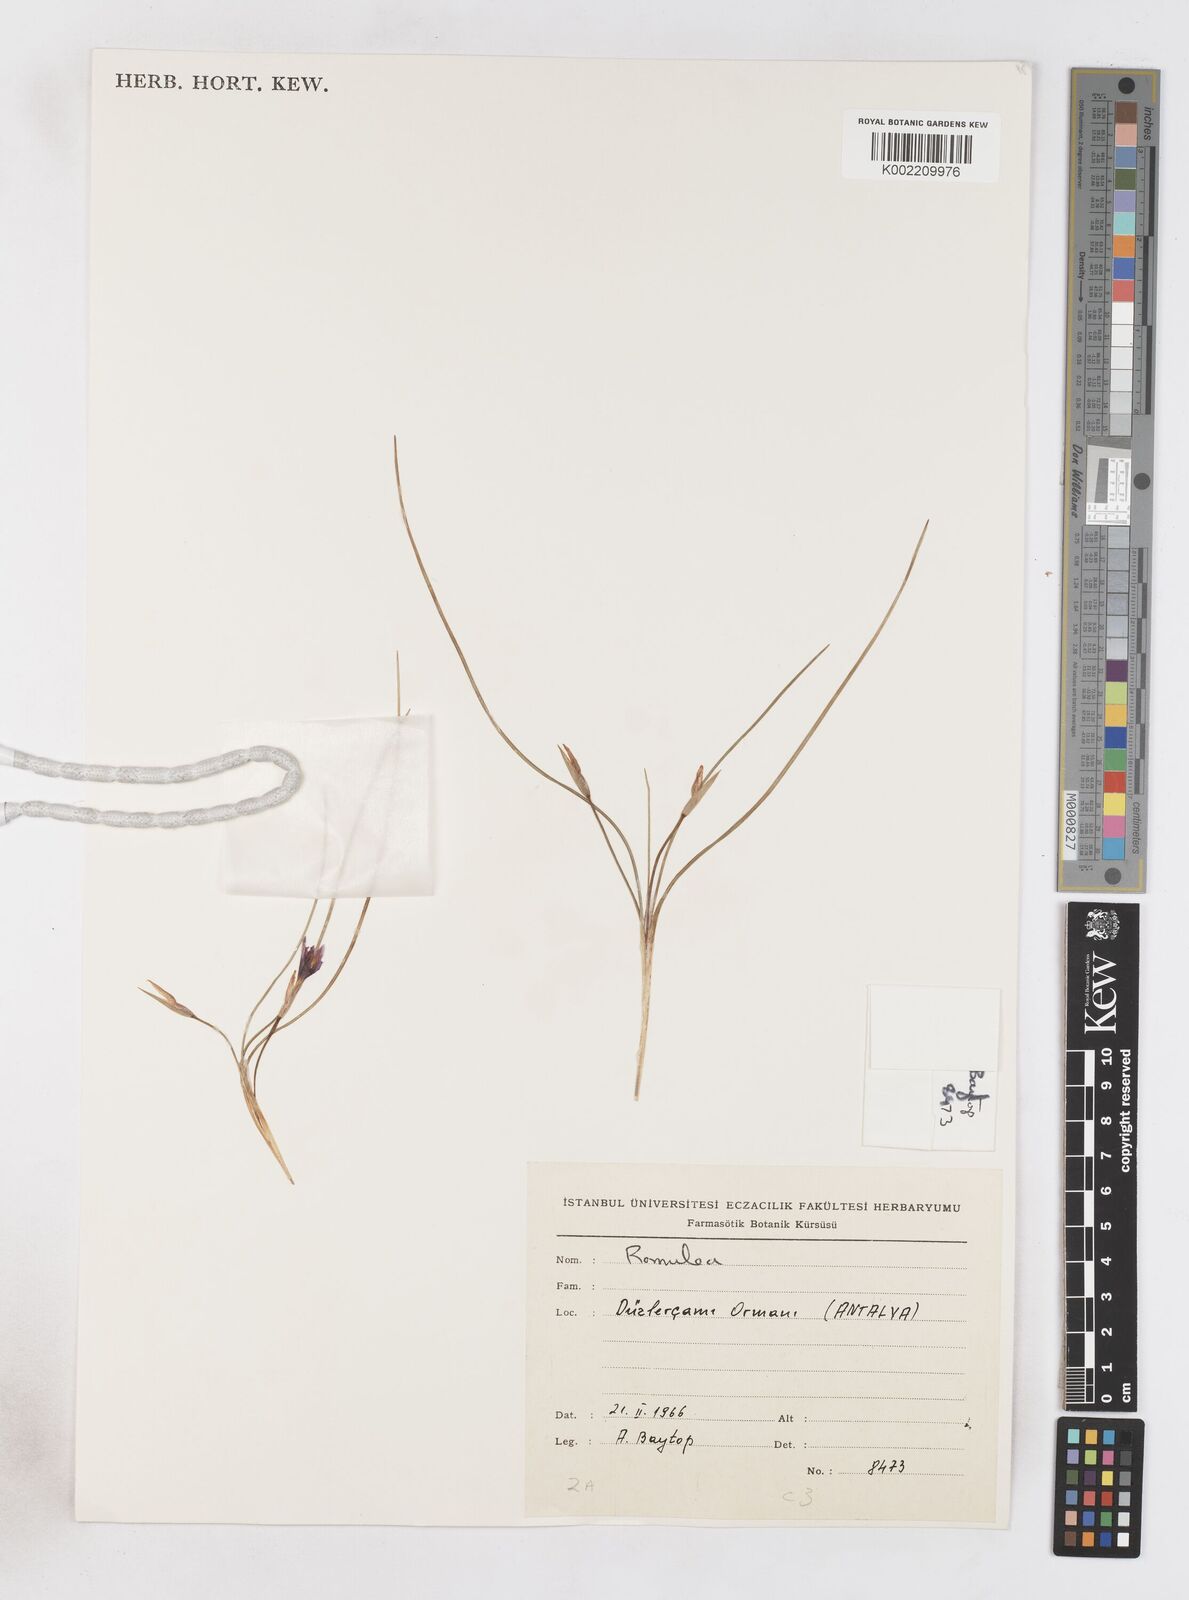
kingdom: Plantae
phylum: Tracheophyta
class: Liliopsida
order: Asparagales
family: Iridaceae
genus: Romulea
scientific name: Romulea tempskyana
